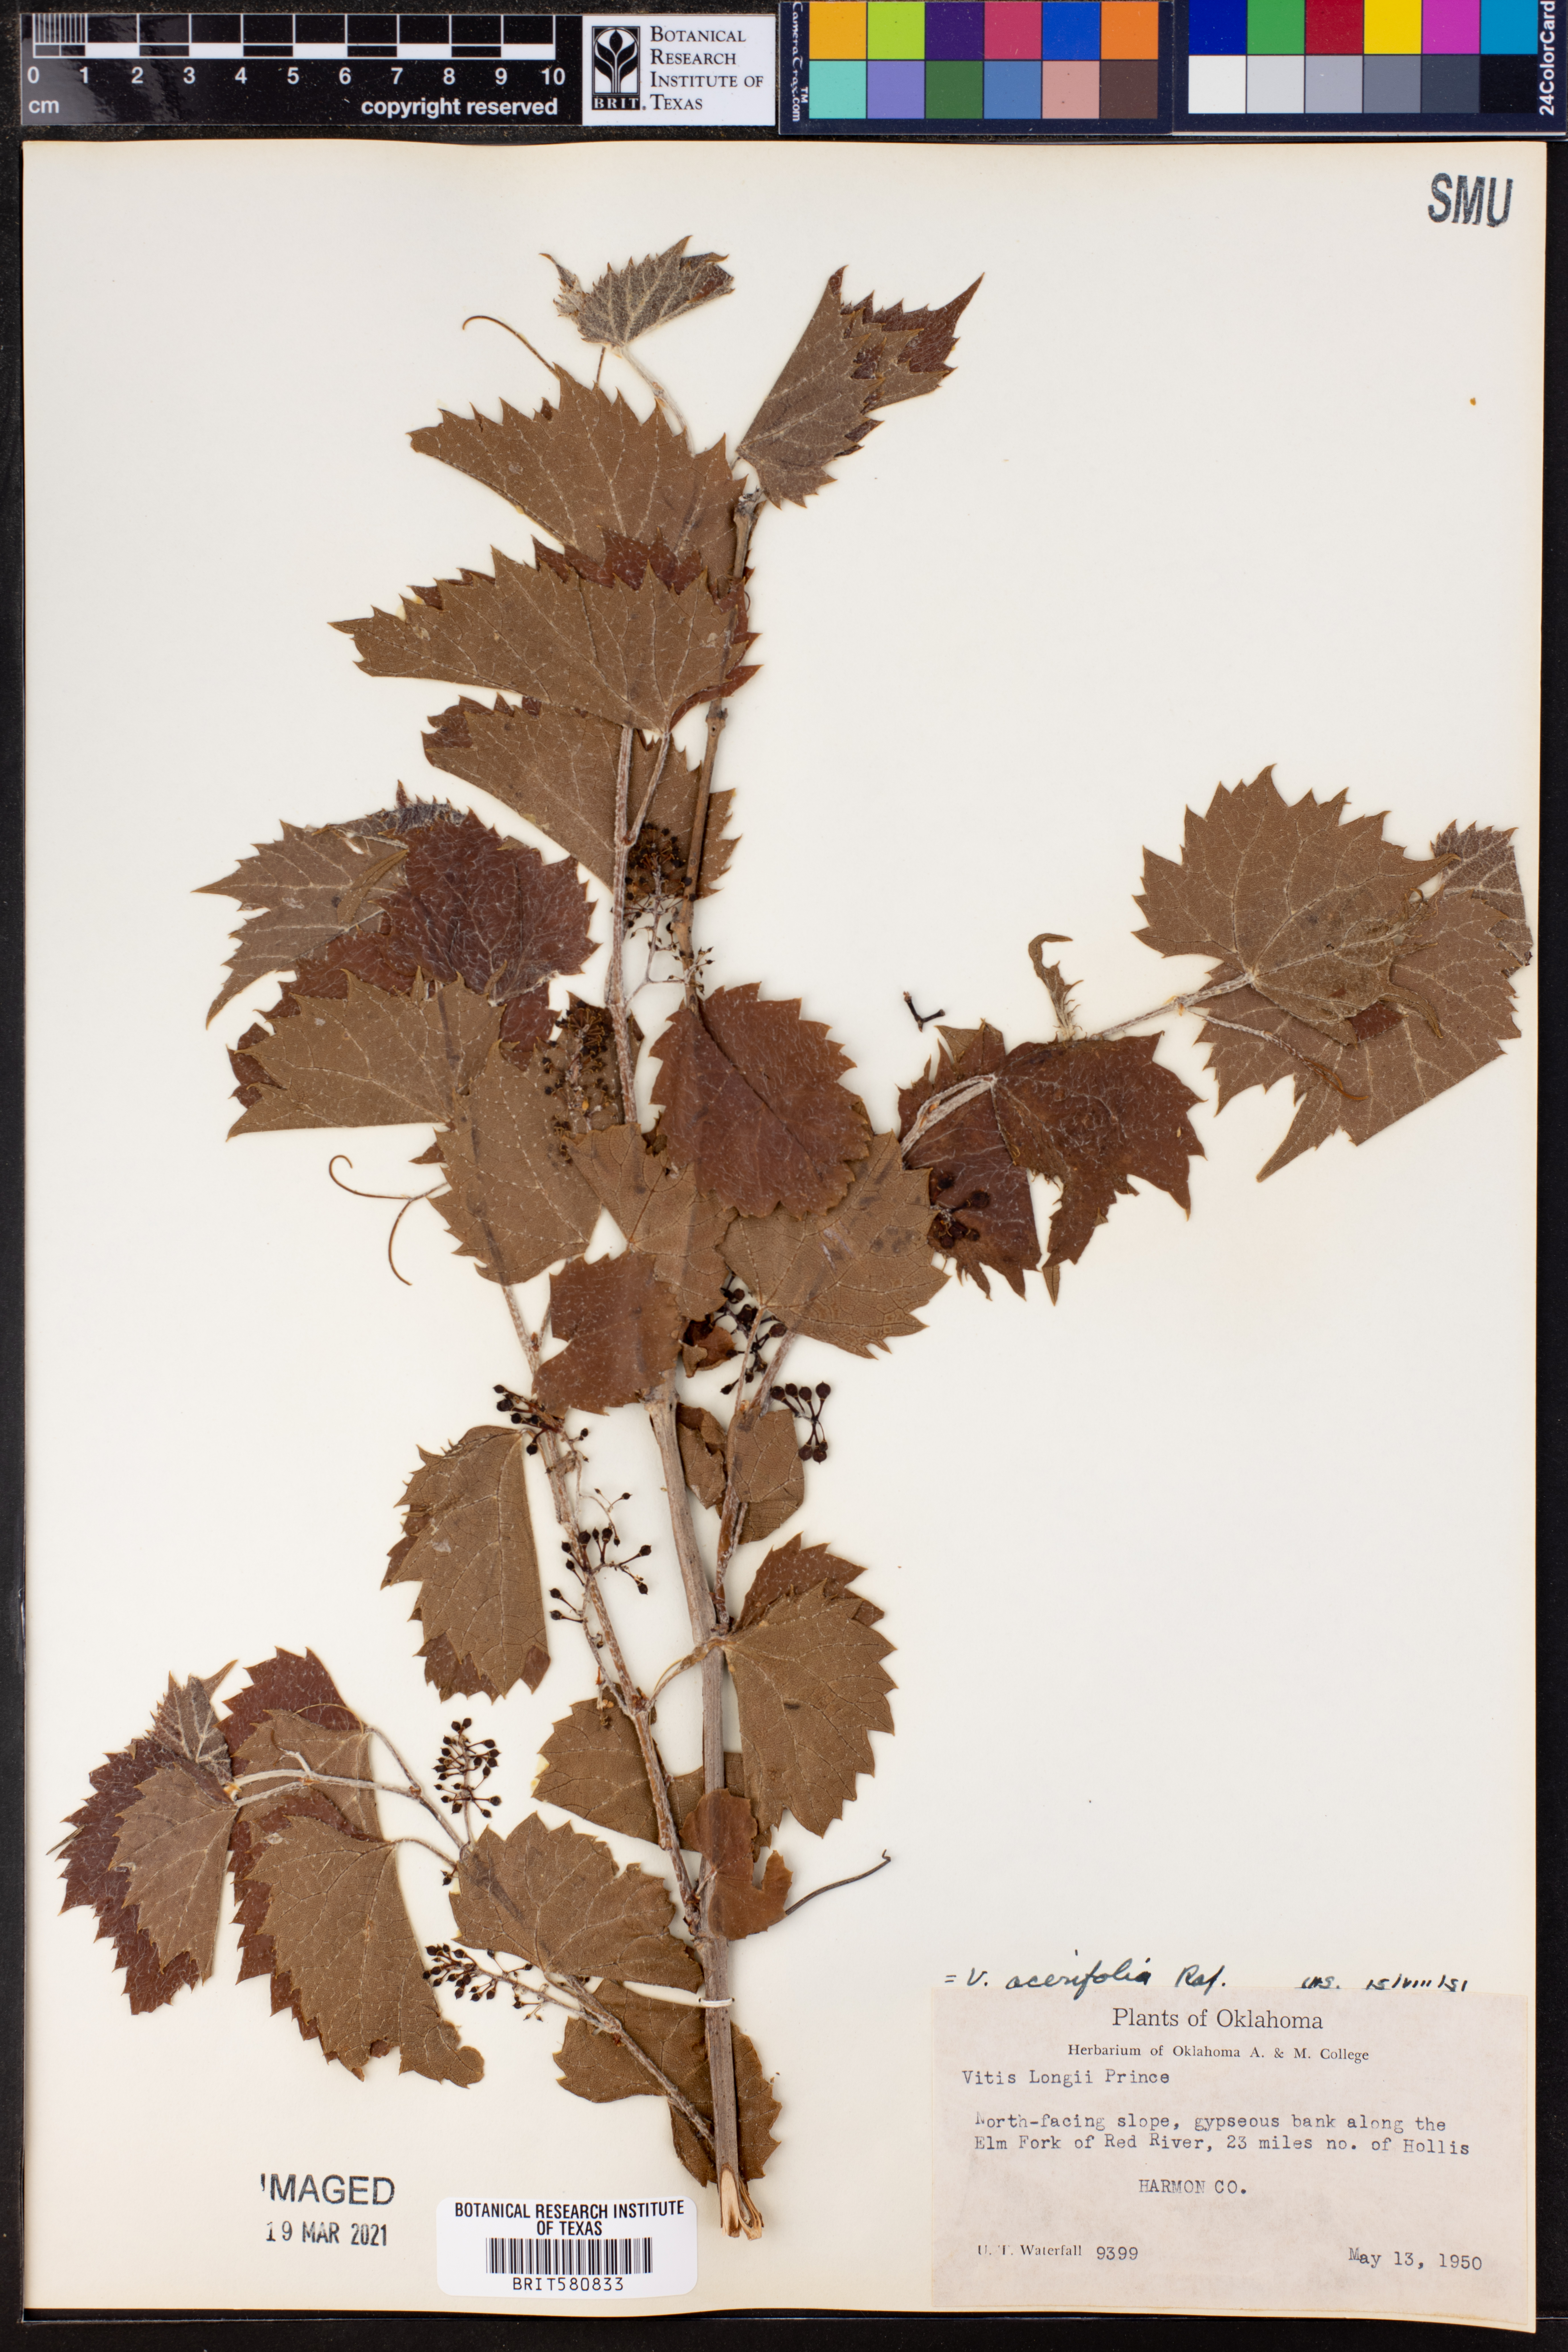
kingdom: Plantae
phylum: Tracheophyta
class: Magnoliopsida
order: Vitales
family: Vitaceae
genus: Vitis
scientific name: Vitis acerifolia
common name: Bush grape
